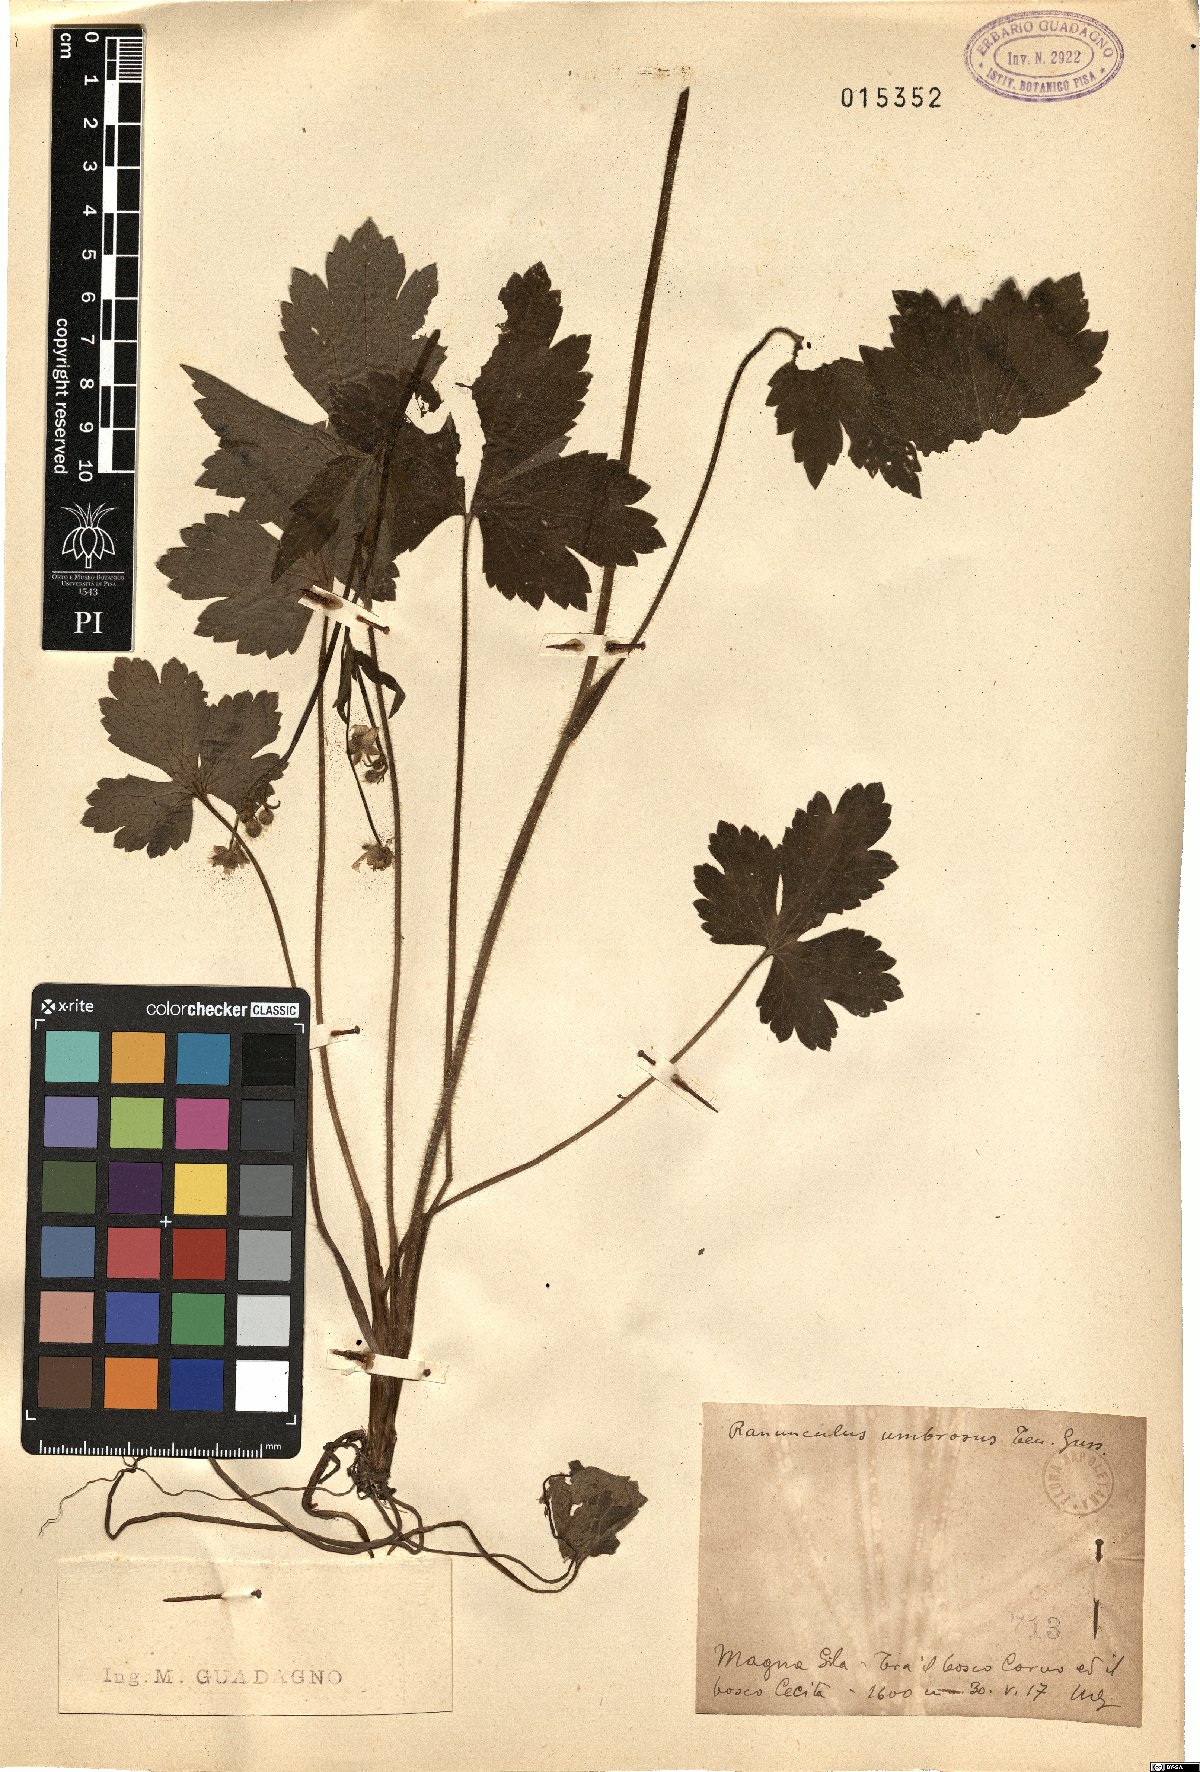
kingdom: Plantae
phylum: Tracheophyta
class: Magnoliopsida
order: Ranunculales
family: Ranunculaceae
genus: Ranunculus
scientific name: Ranunculus lanuginosus
